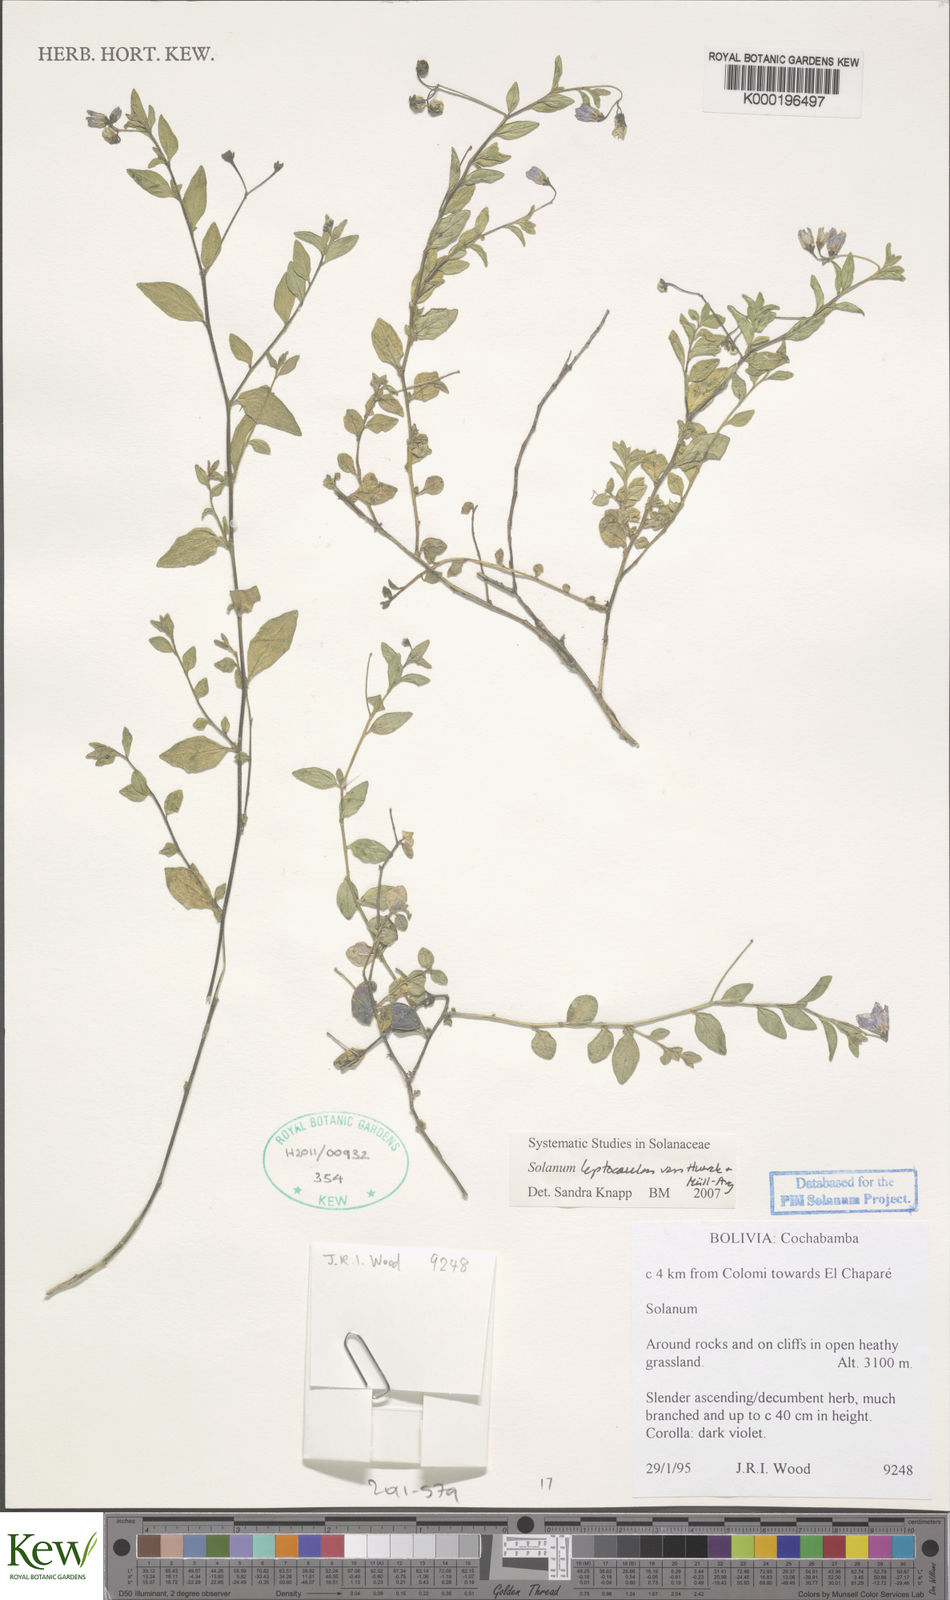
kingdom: Plantae
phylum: Tracheophyta
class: Magnoliopsida
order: Solanales
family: Solanaceae
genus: Solanum
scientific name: Solanum
